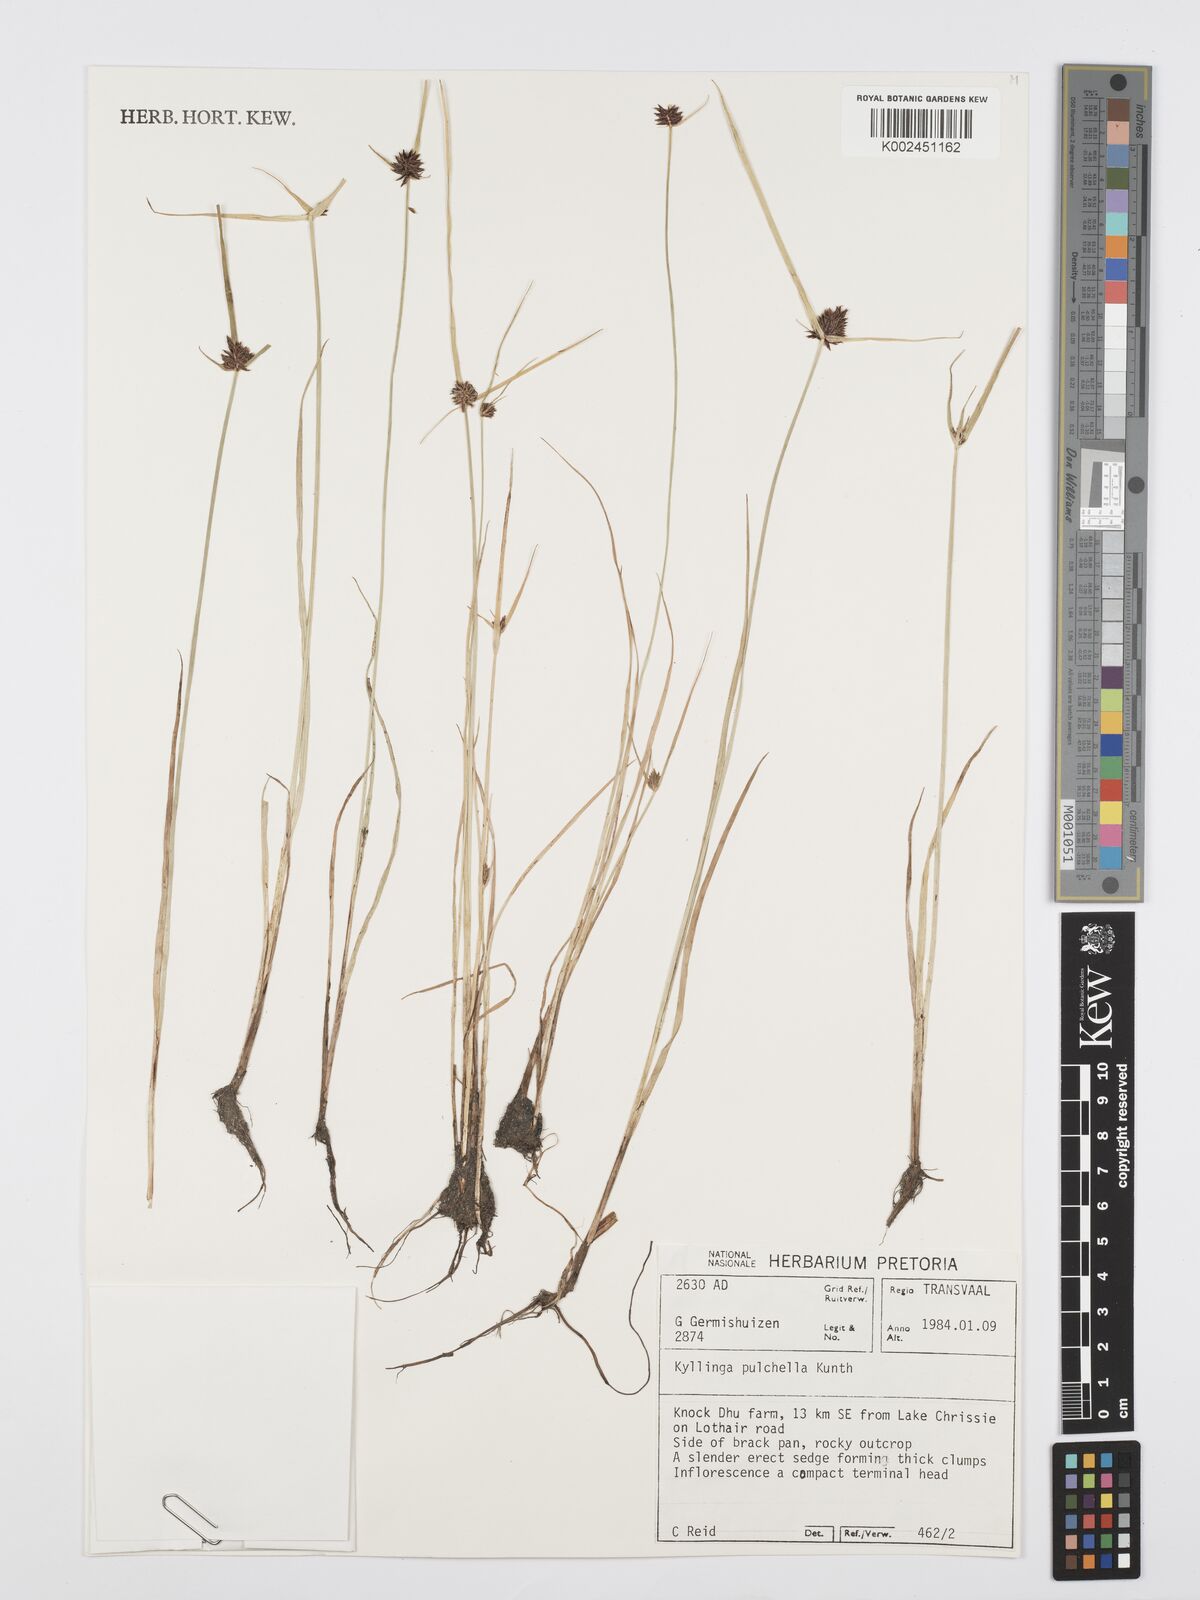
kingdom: Plantae
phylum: Tracheophyta
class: Liliopsida
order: Poales
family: Cyperaceae
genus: Cyperus
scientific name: Cyperus
